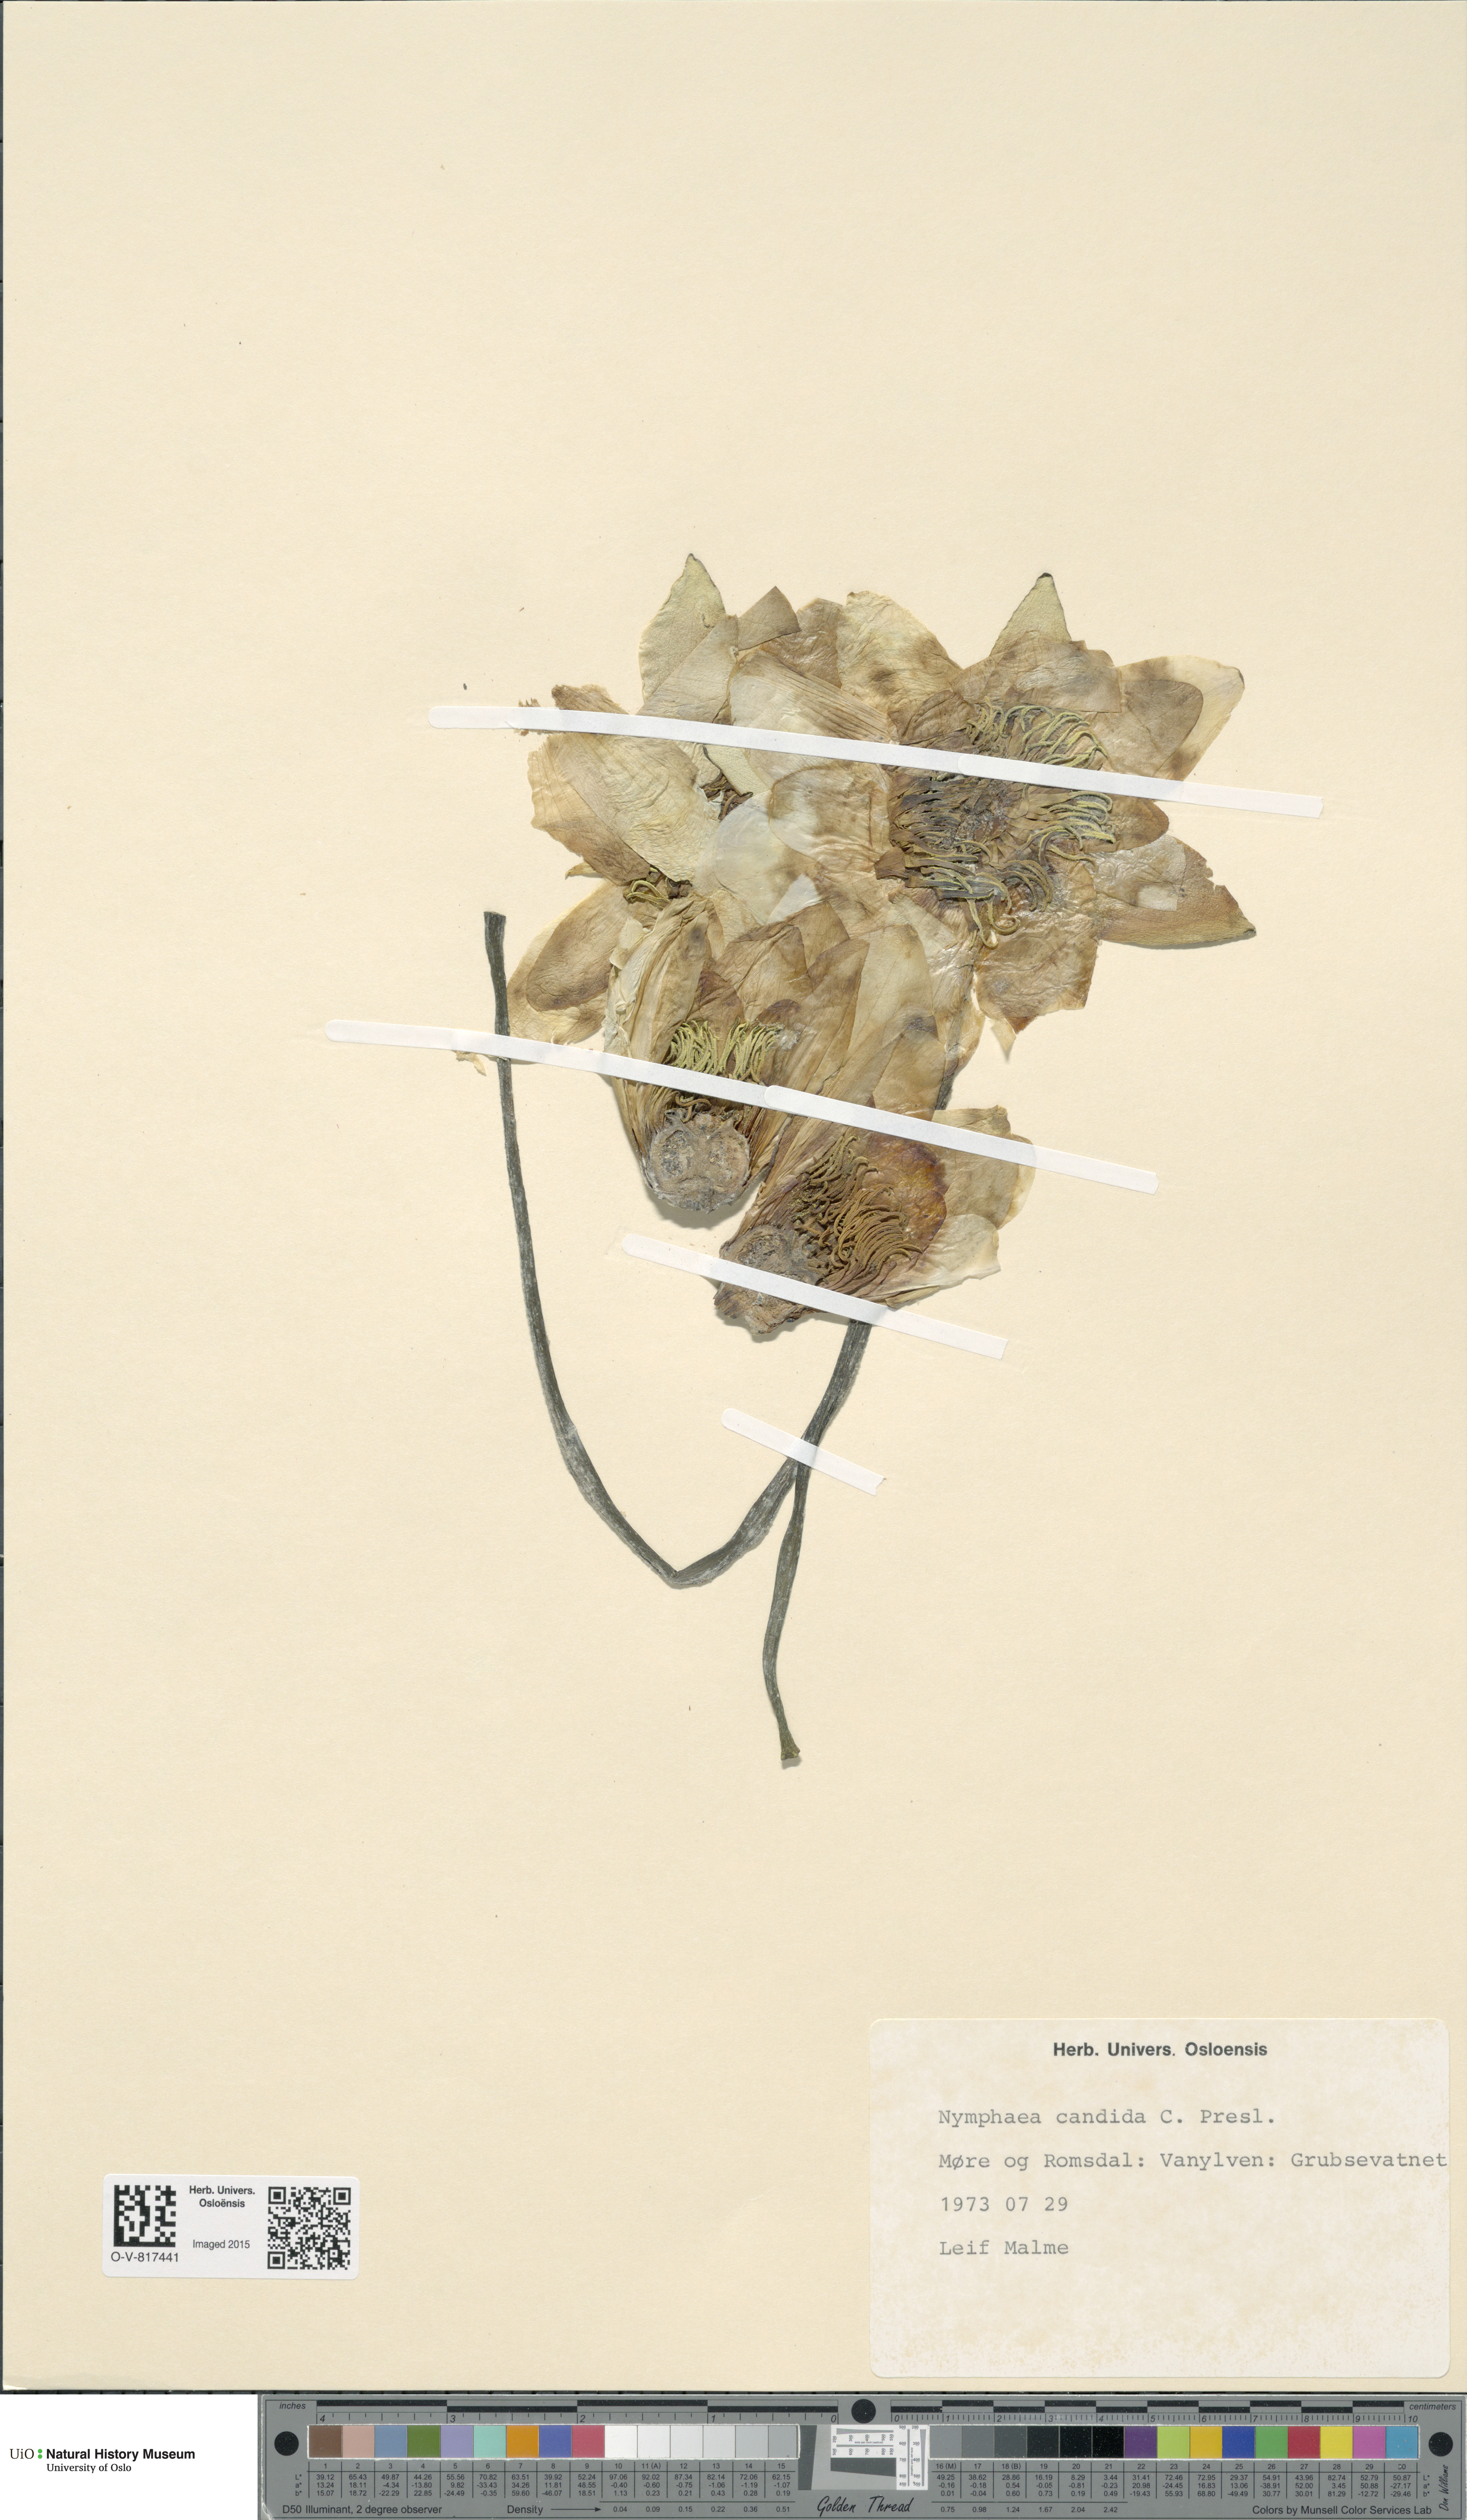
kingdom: Plantae
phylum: Tracheophyta
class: Magnoliopsida
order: Nymphaeales
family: Nymphaeaceae
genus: Nymphaea
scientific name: Nymphaea candida
